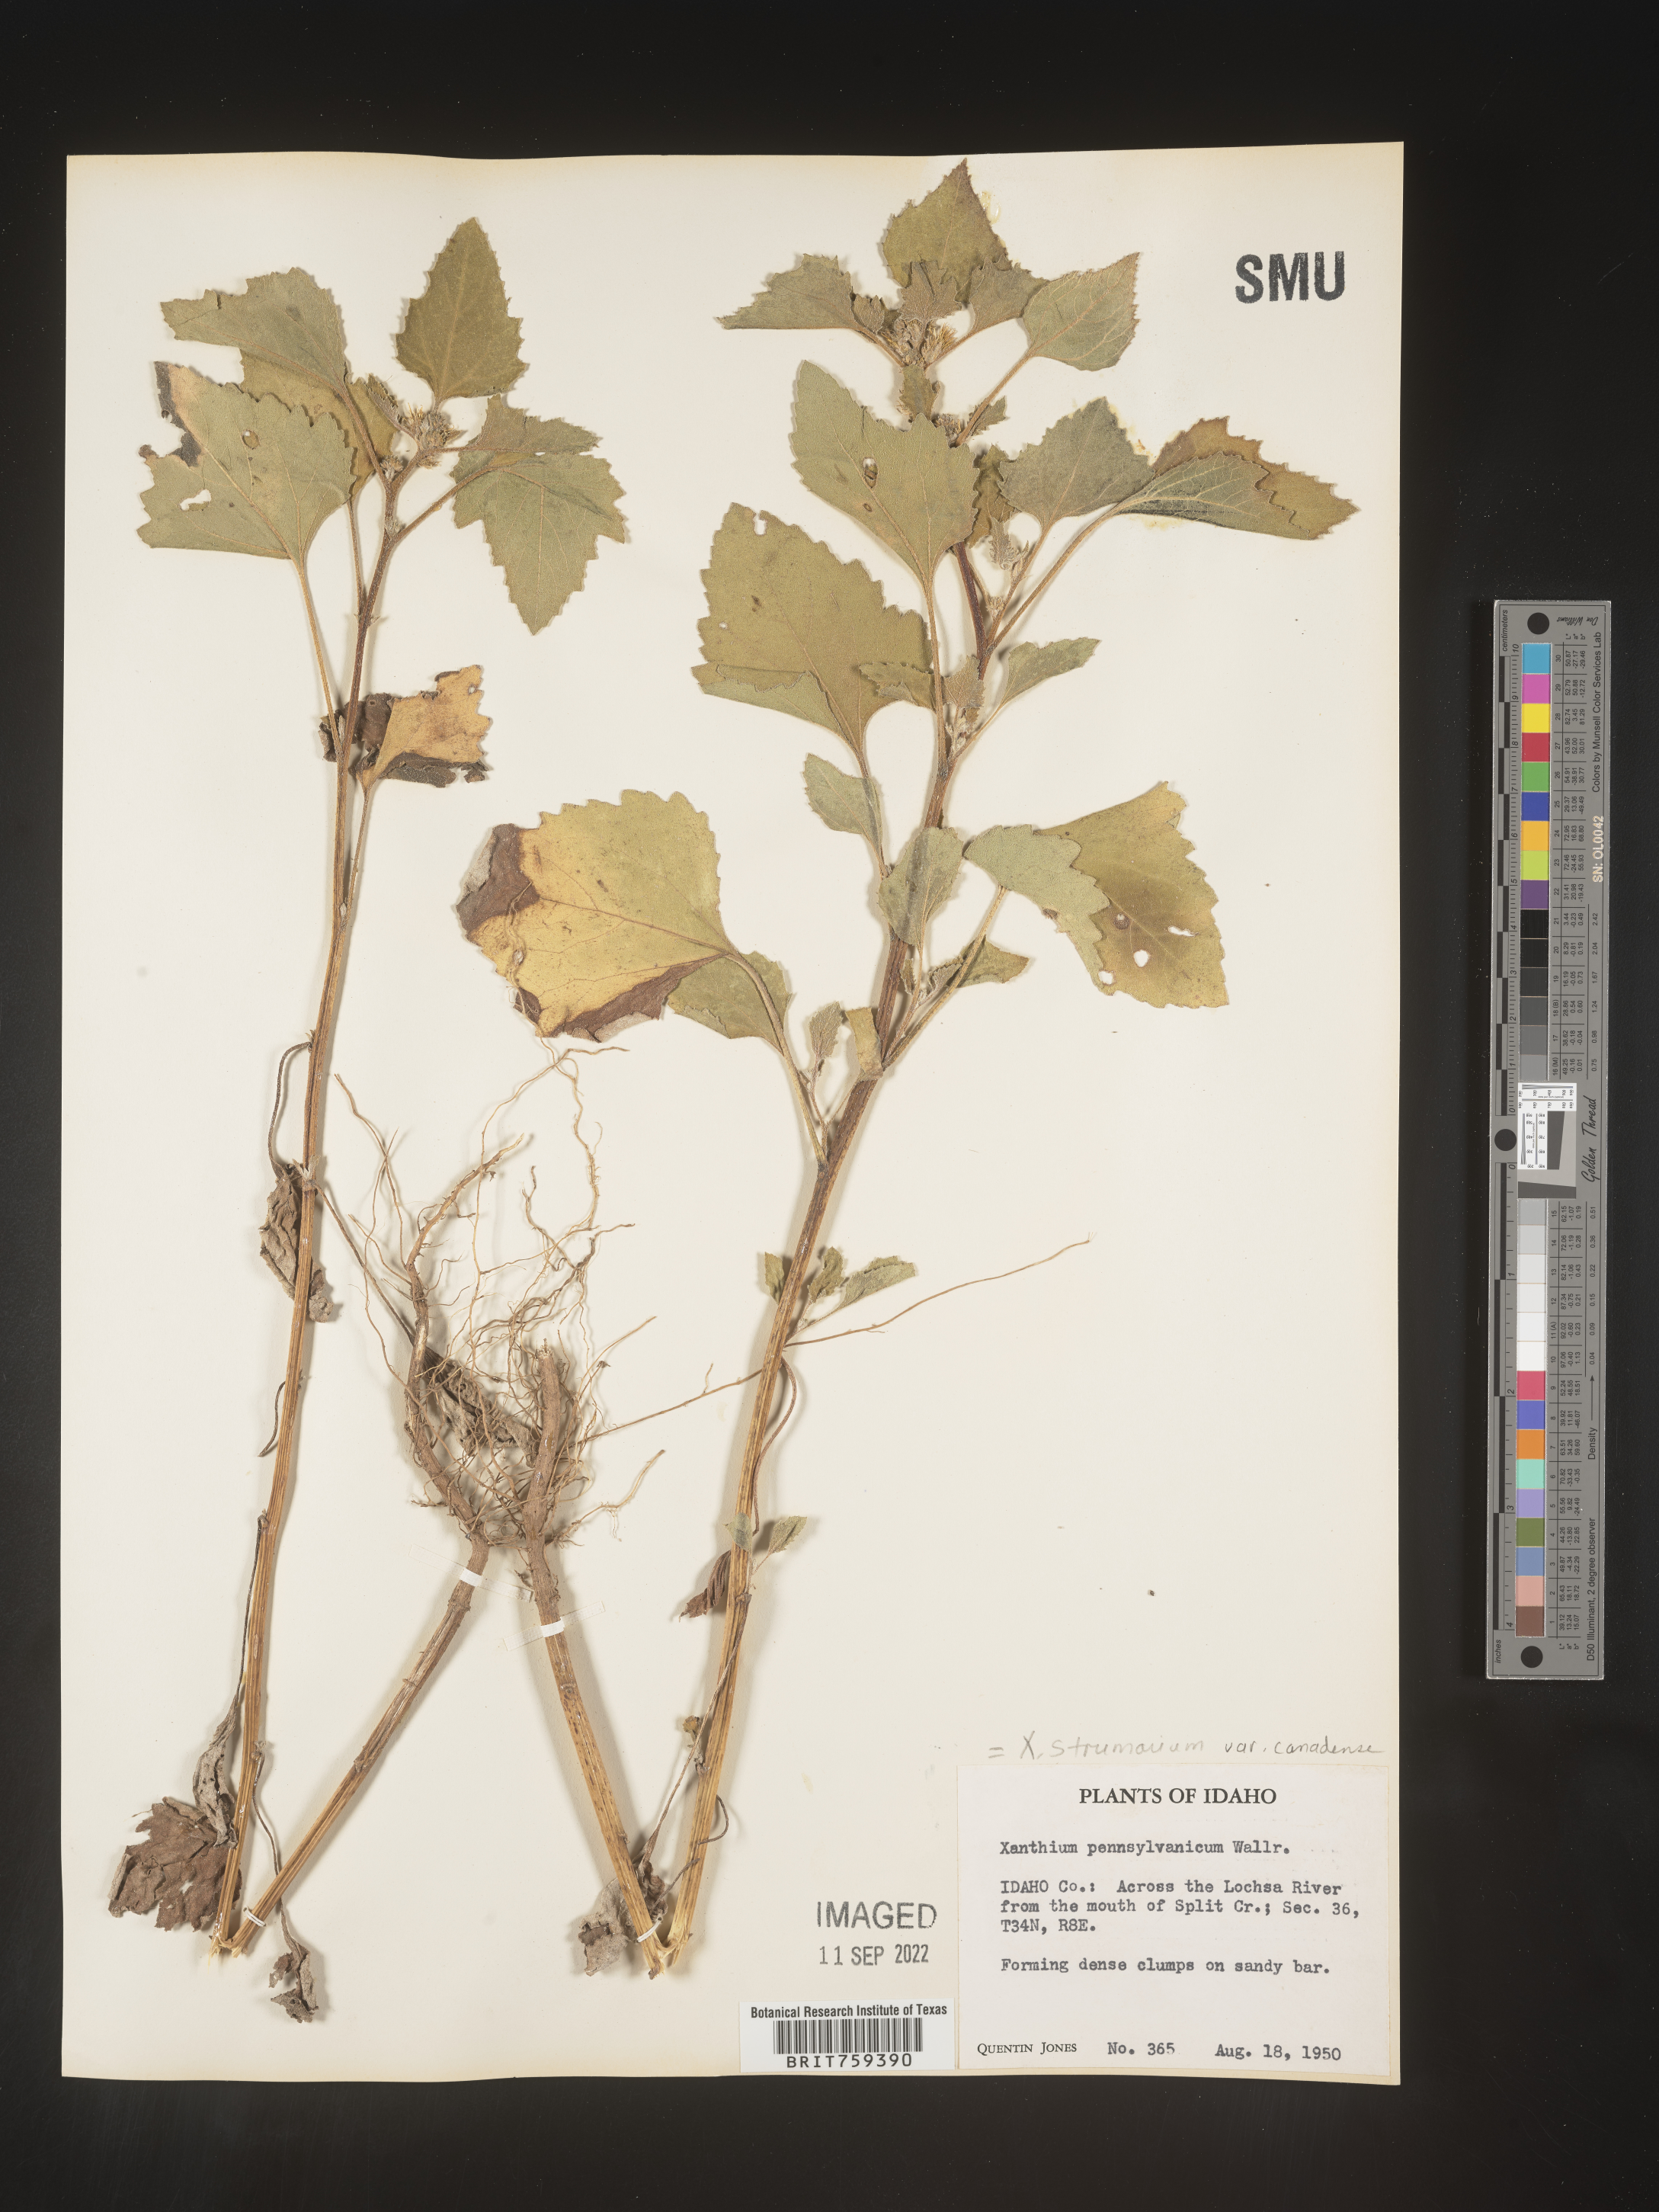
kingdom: Plantae
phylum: Tracheophyta
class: Magnoliopsida
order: Asterales
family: Asteraceae
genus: Xanthium
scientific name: Xanthium orientale
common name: Californian burr
